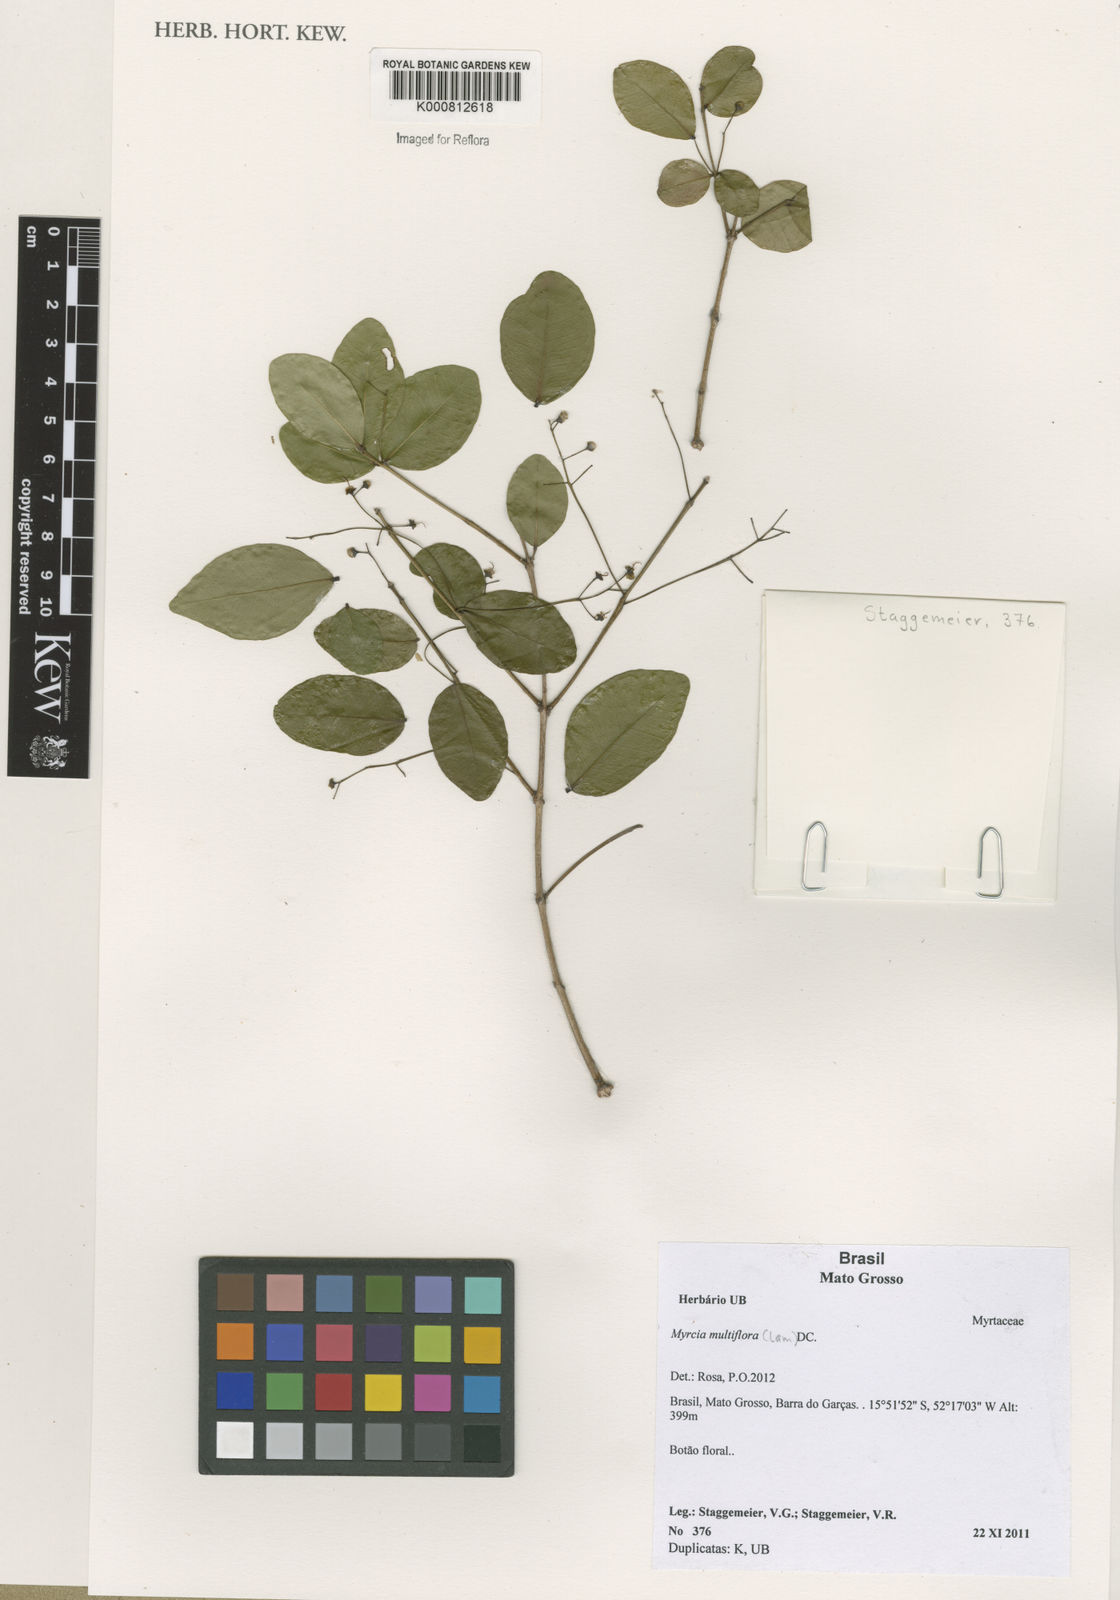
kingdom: Plantae
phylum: Tracheophyta
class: Magnoliopsida
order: Myrtales
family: Myrtaceae
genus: Myrcia
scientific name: Myrcia multiflora
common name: Pedra hume
